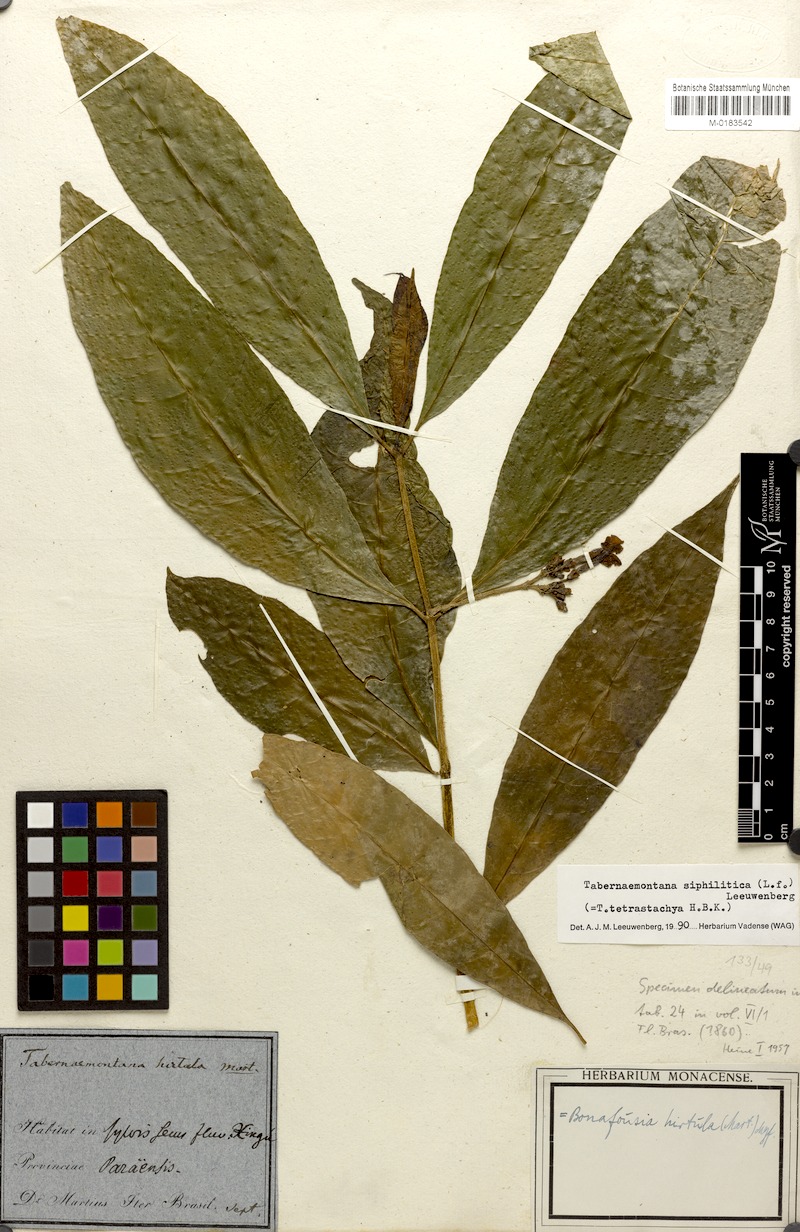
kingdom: Plantae
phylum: Tracheophyta
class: Magnoliopsida
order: Gentianales
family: Apocynaceae
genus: Tabernaemontana
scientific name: Tabernaemontana siphilitica
